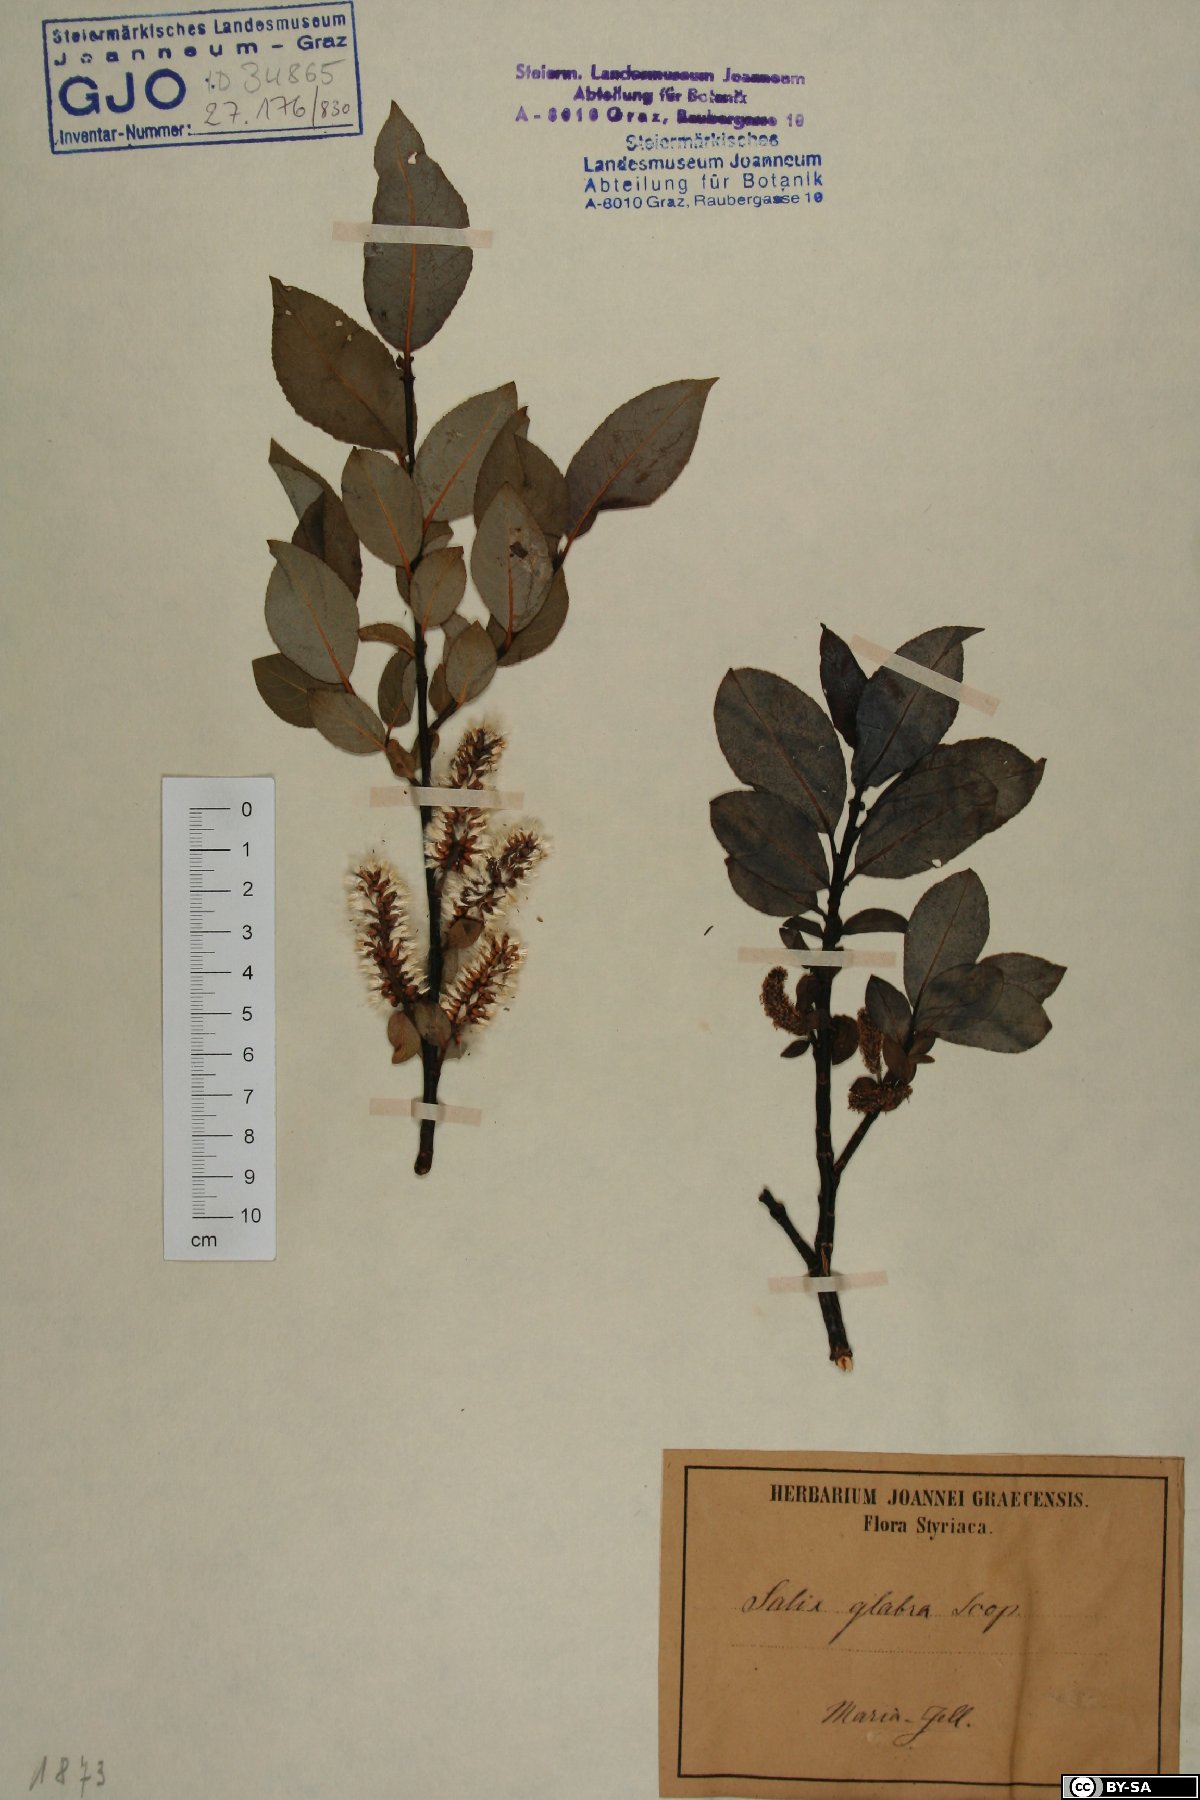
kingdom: Plantae
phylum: Tracheophyta
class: Magnoliopsida
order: Malpighiales
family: Salicaceae
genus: Salix
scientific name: Salix glabra
